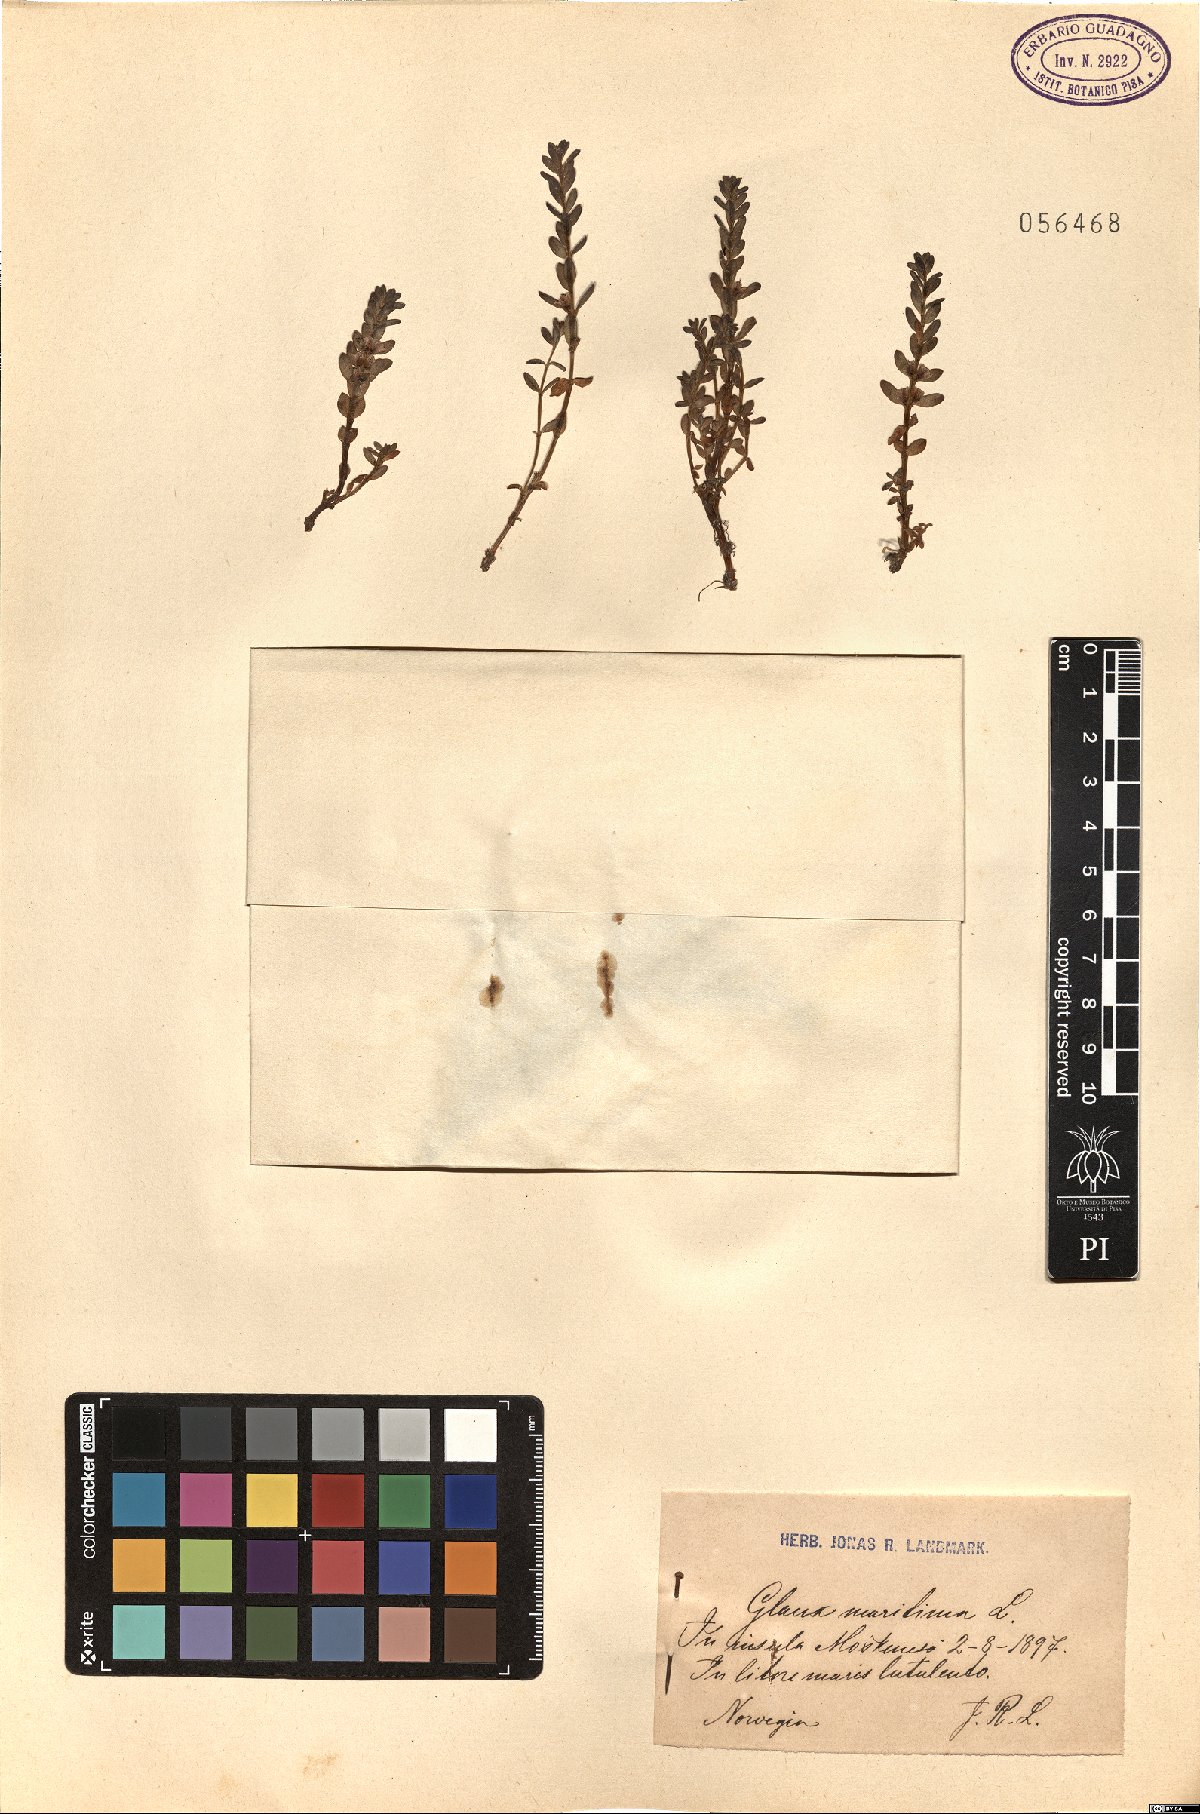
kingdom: Plantae
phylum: Tracheophyta
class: Magnoliopsida
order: Ericales
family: Primulaceae
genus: Lysimachia
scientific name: Lysimachia maritima
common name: Sea milkwort
